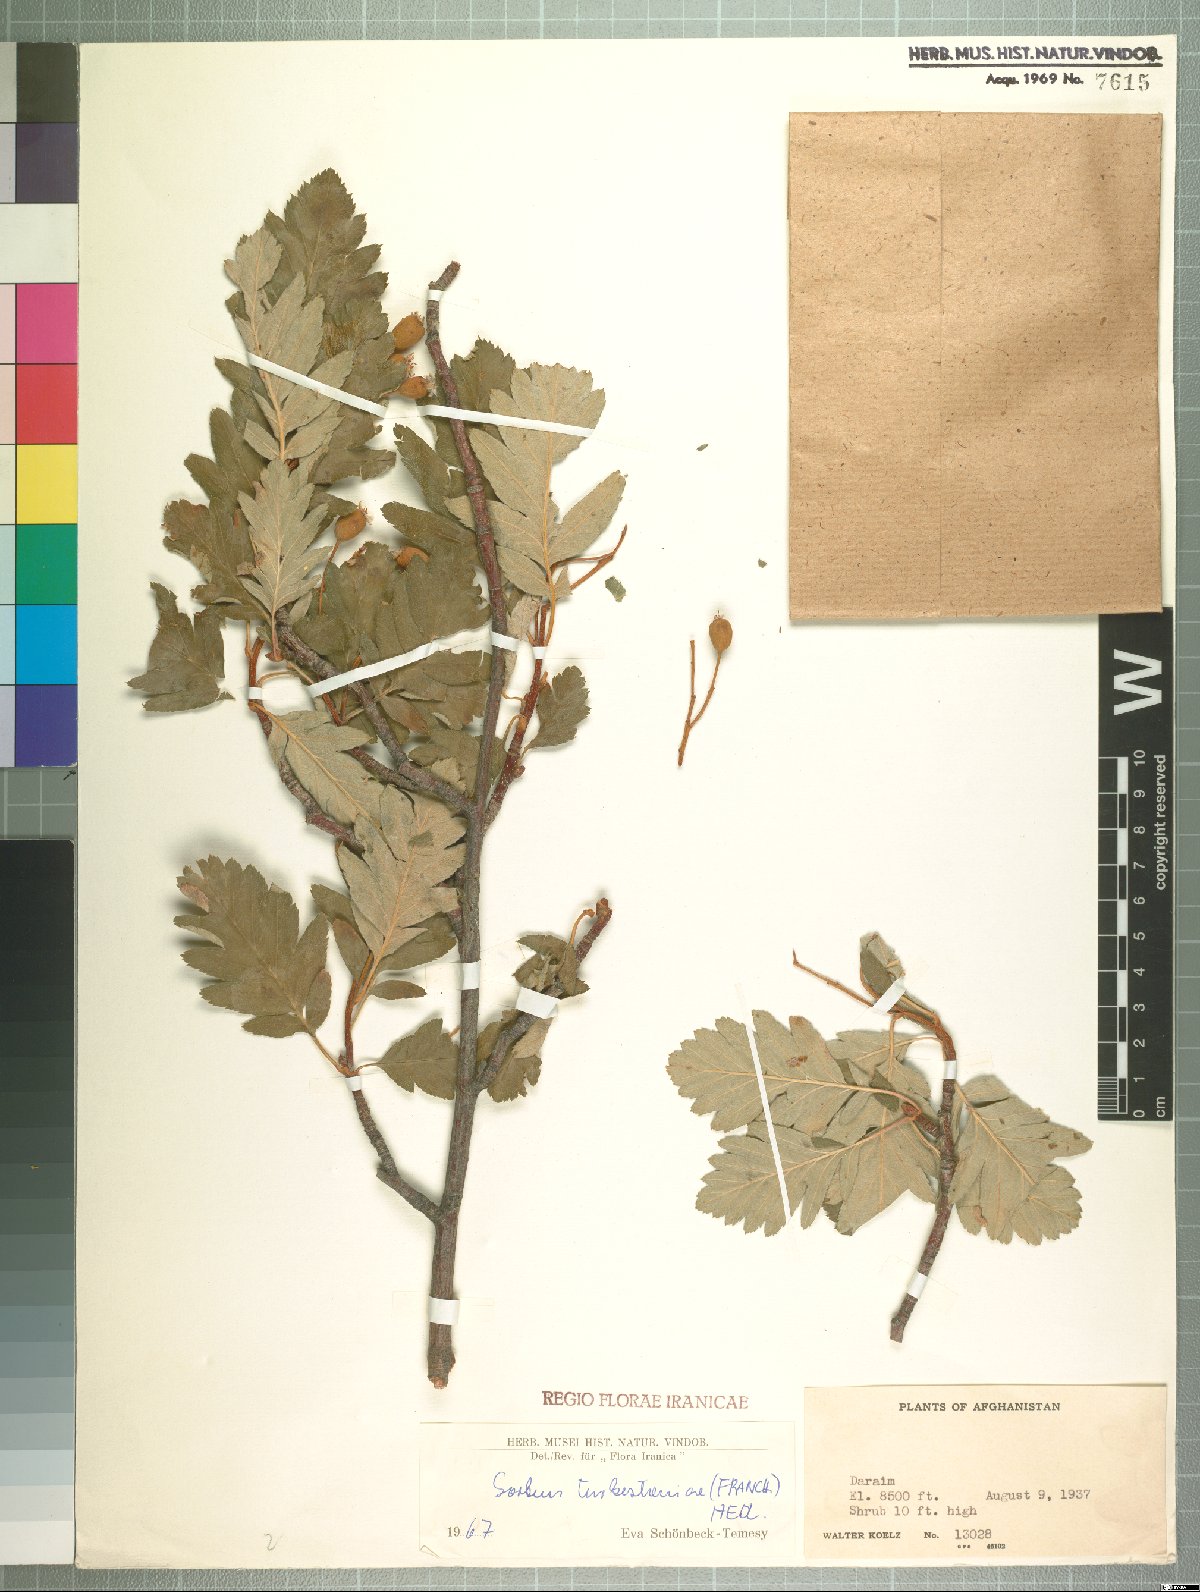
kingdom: Plantae
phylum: Tracheophyta
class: Magnoliopsida
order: Rosales
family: Rosaceae
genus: Hedlundia
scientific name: Hedlundia turkestanica
